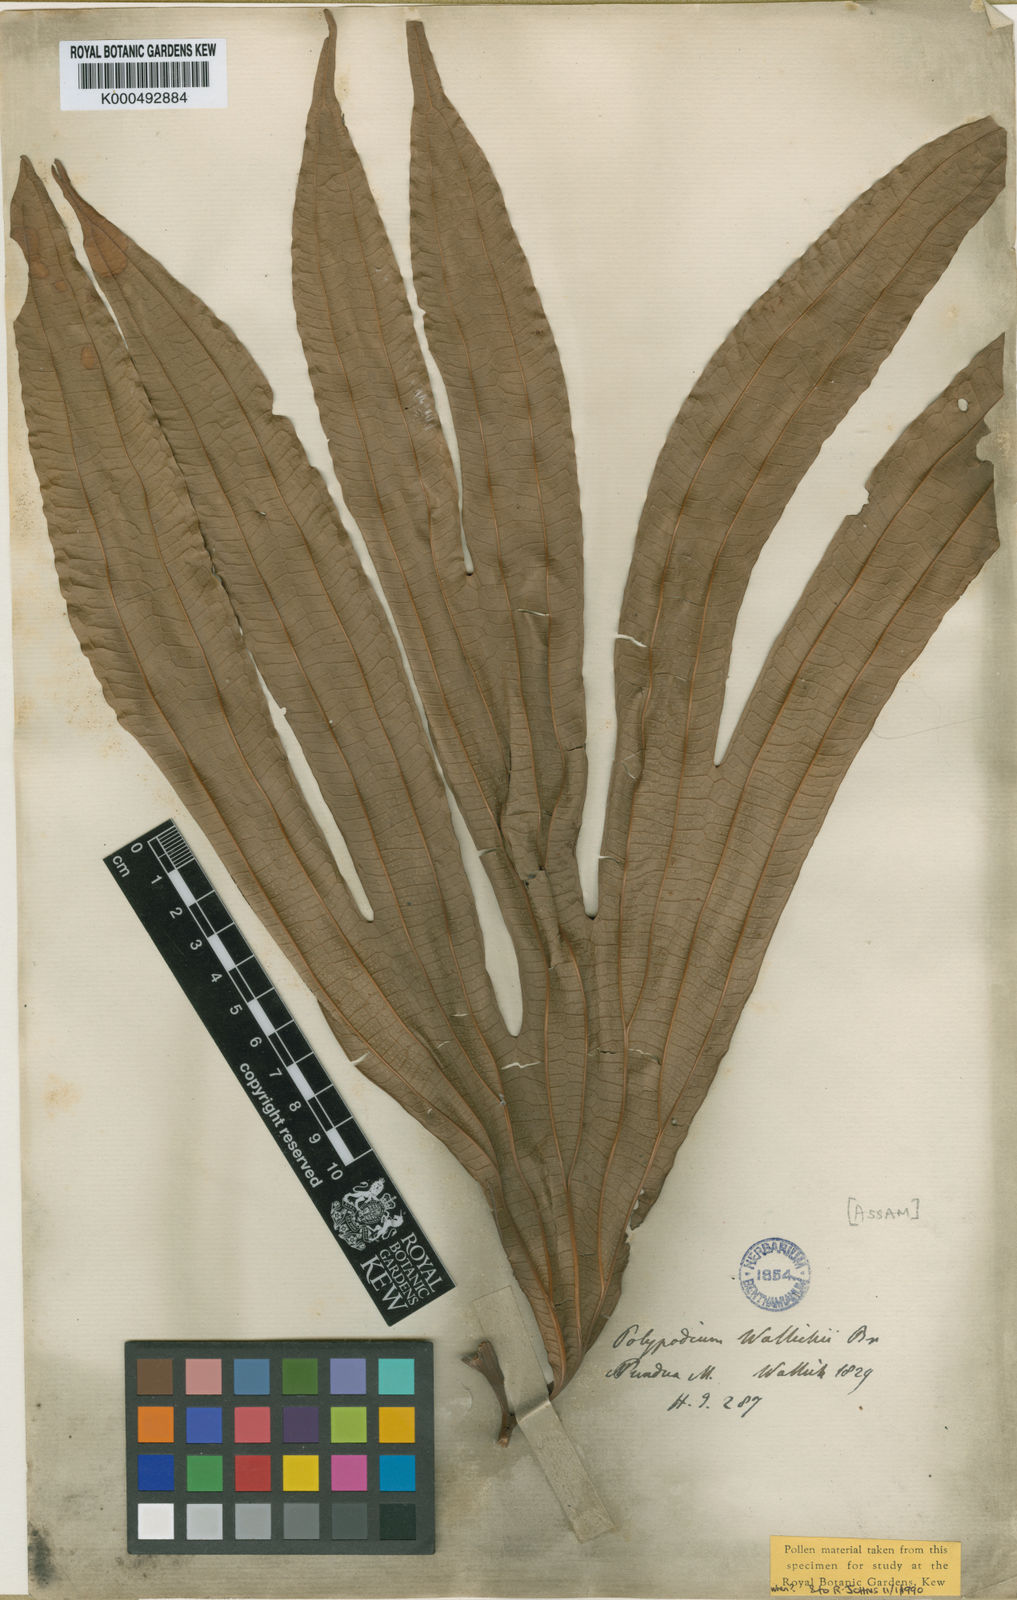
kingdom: Plantae
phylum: Tracheophyta
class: Polypodiopsida
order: Gleicheniales
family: Dipteridaceae
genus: Dipteris
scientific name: Dipteris
